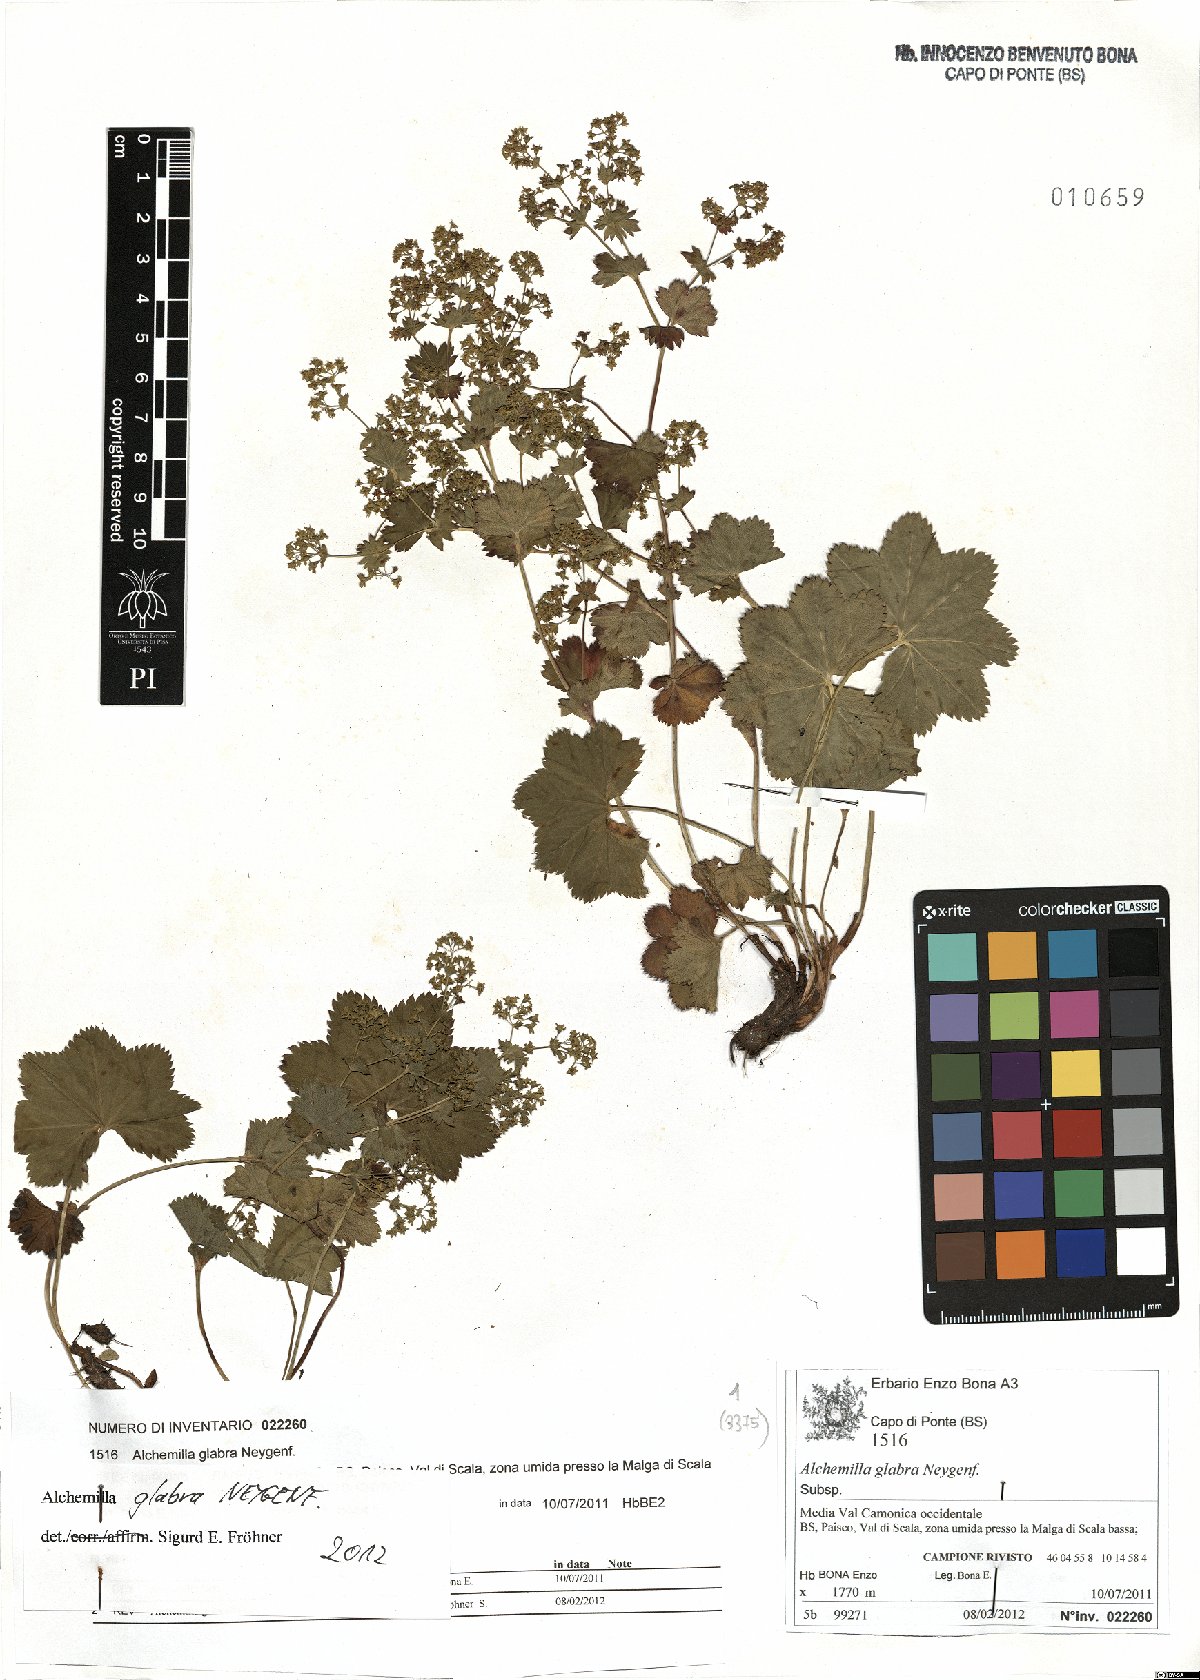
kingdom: Plantae
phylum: Tracheophyta
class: Magnoliopsida
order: Rosales
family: Rosaceae
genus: Alchemilla
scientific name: Alchemilla glabra
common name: Smooth lady's-mantle
